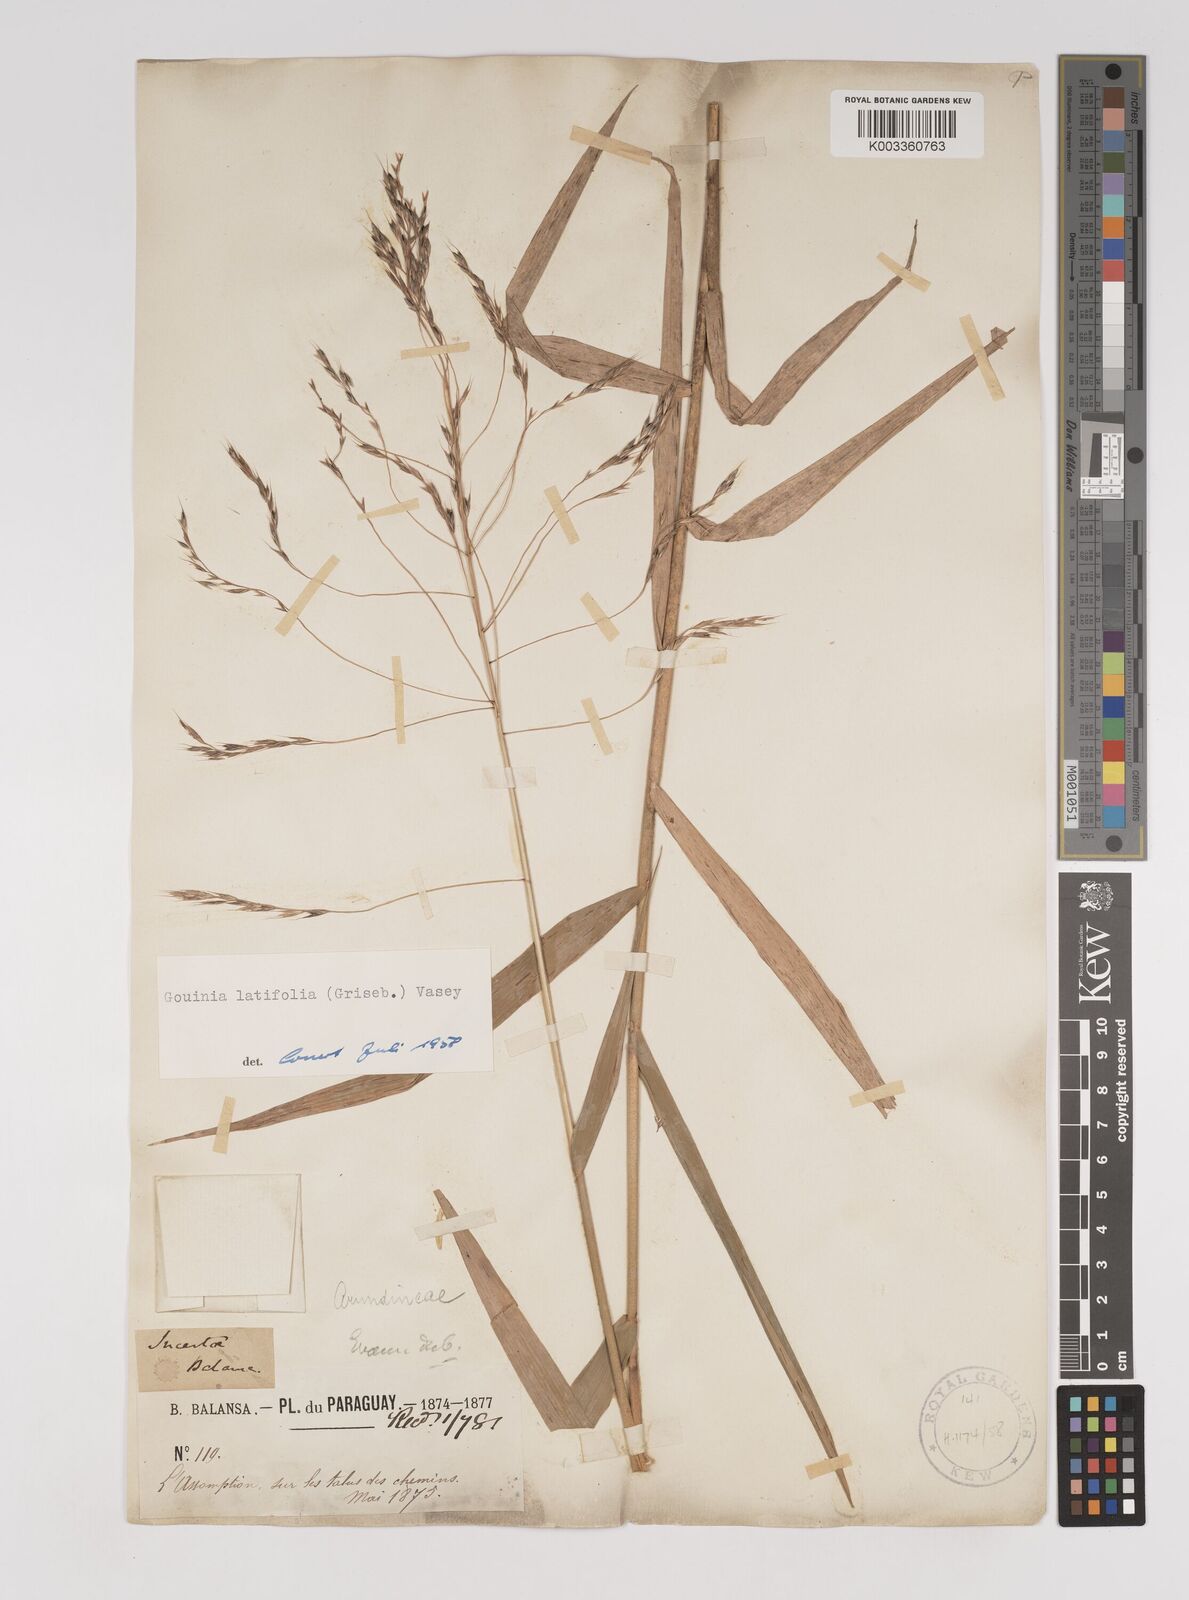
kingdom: Plantae
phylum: Tracheophyta
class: Liliopsida
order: Poales
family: Poaceae
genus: Gouinia
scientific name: Gouinia latifolia
